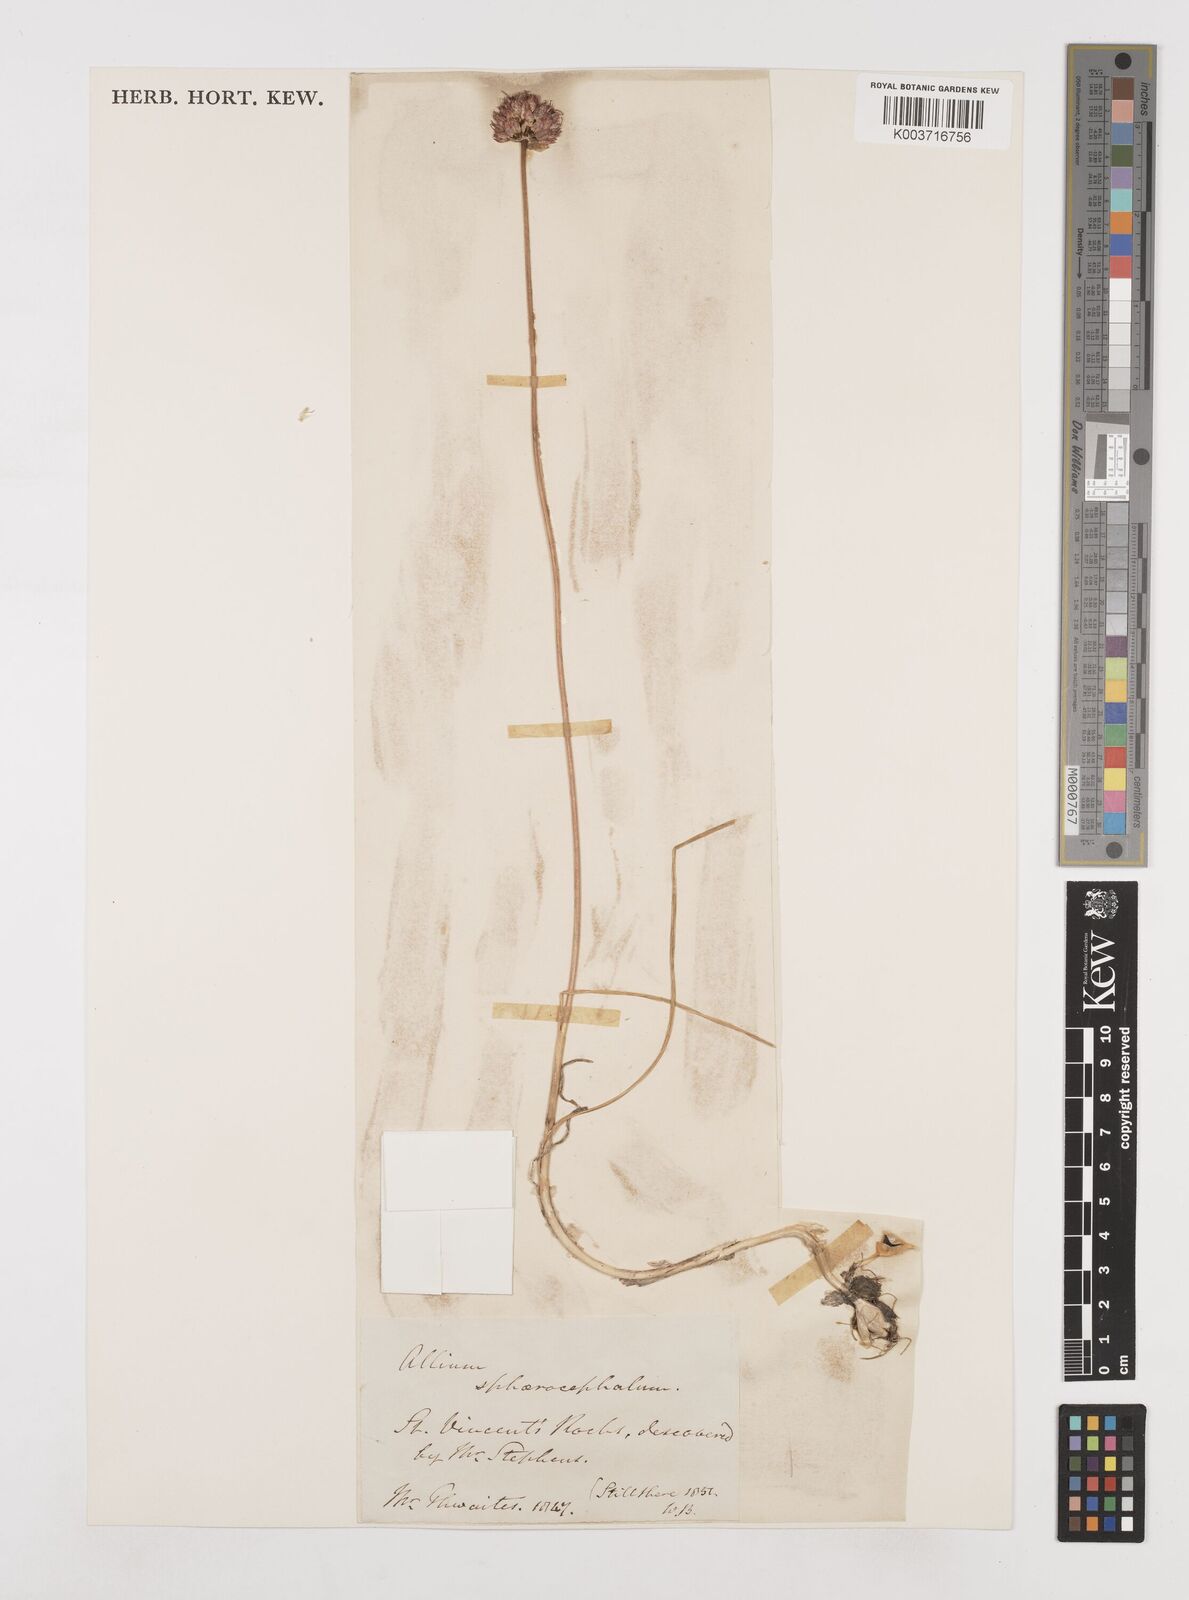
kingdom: Plantae
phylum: Tracheophyta
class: Liliopsida
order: Asparagales
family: Amaryllidaceae
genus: Allium
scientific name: Allium sphaerocephalon
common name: Round-headed leek
